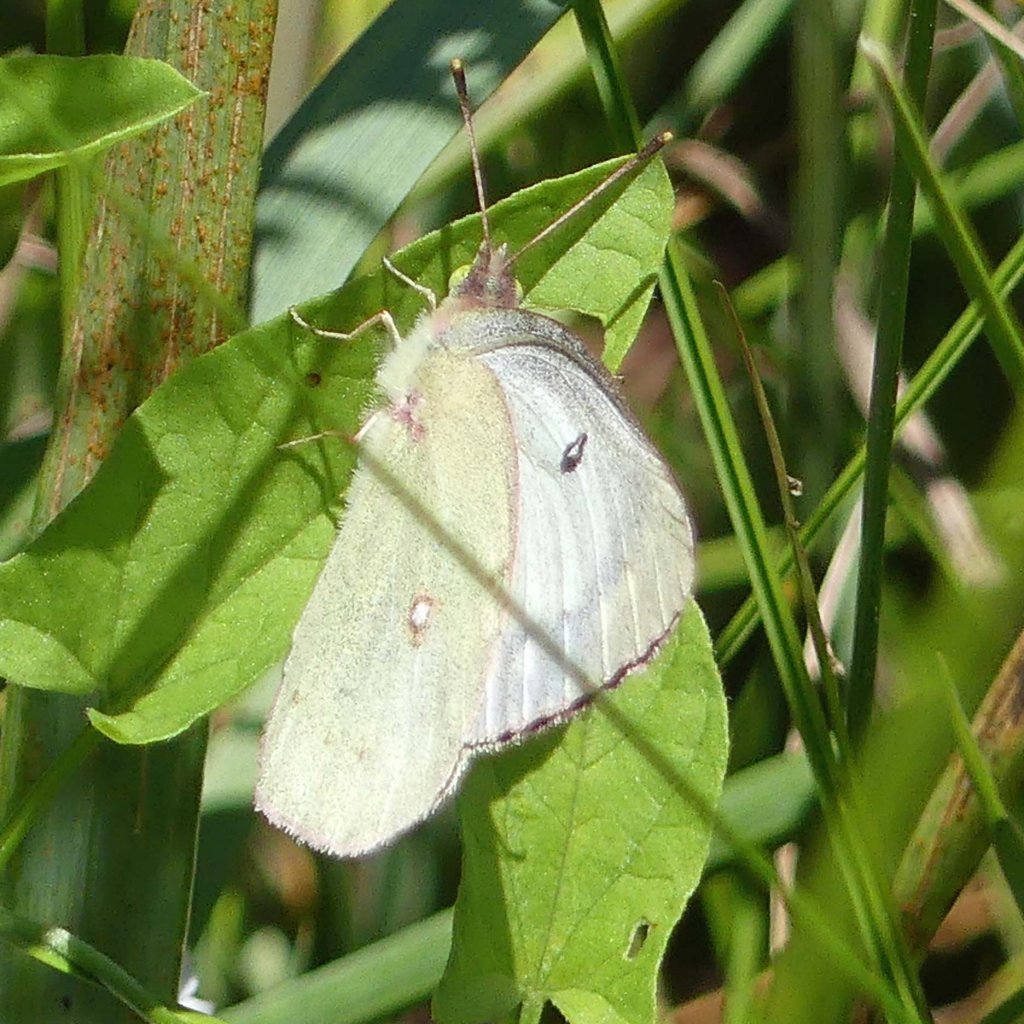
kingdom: Animalia
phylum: Arthropoda
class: Insecta
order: Lepidoptera
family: Pieridae
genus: Colias
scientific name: Colias philodice
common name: Clouded Sulphur
